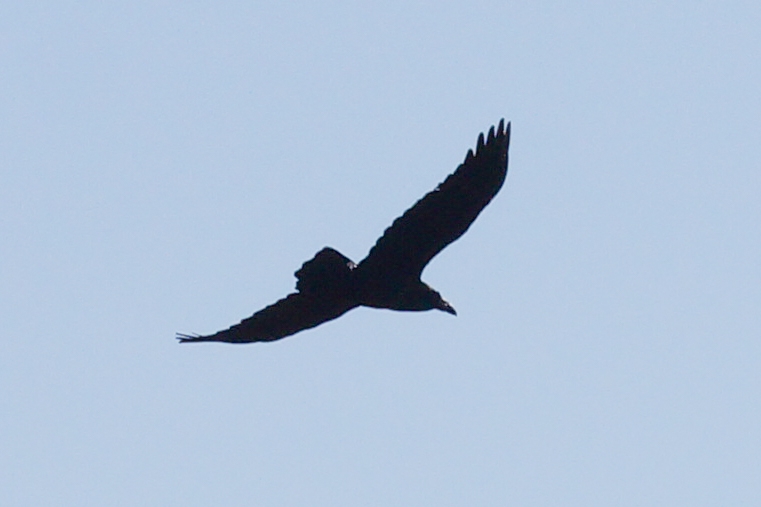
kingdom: Animalia
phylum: Chordata
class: Aves
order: Passeriformes
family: Corvidae
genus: Corvus
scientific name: Corvus corax
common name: Ravn
